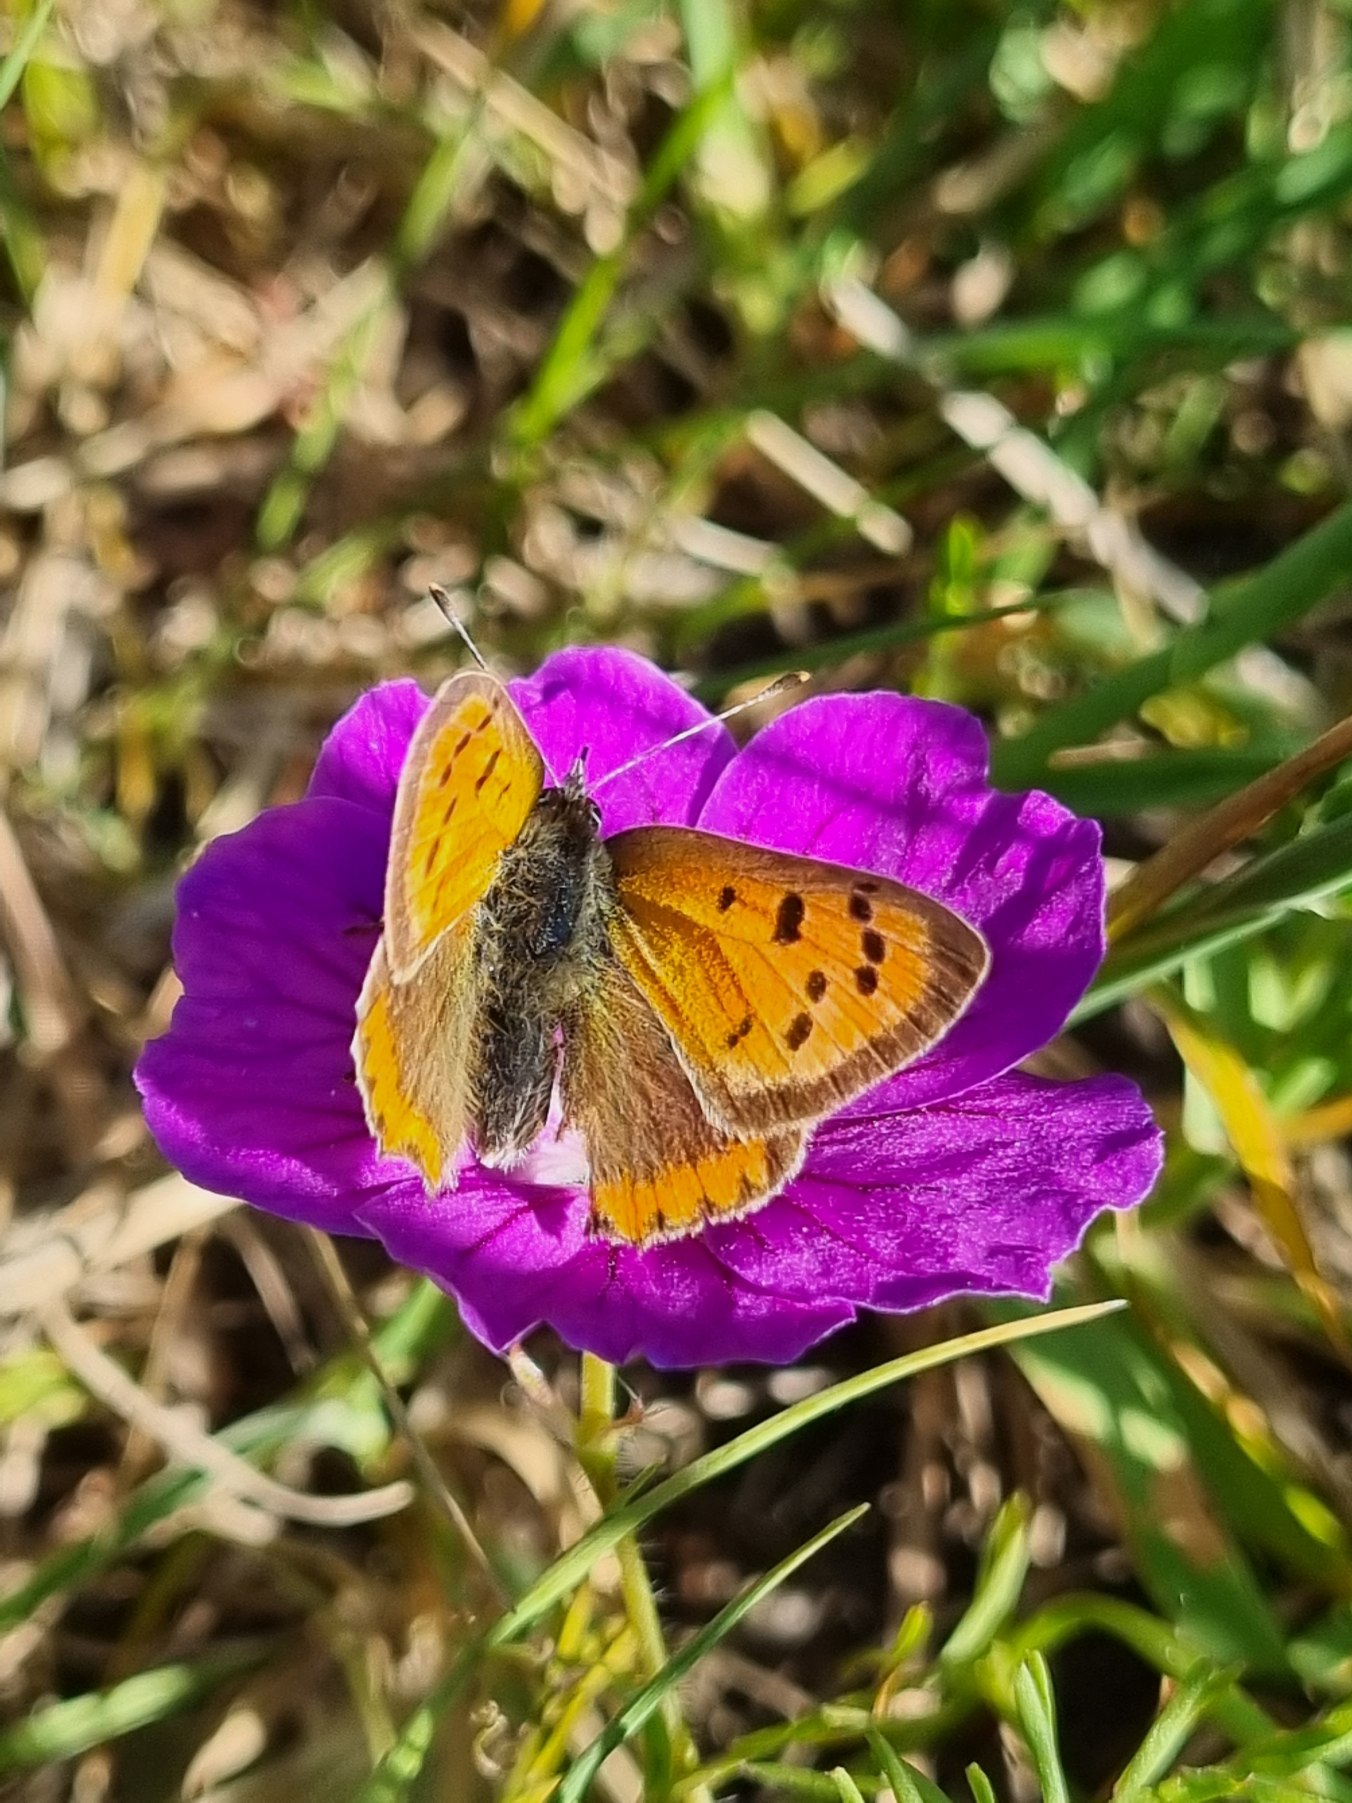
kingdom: Animalia
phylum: Arthropoda
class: Insecta
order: Lepidoptera
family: Lycaenidae
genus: Lycaena
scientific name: Lycaena phlaeas
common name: Lille ildfugl
